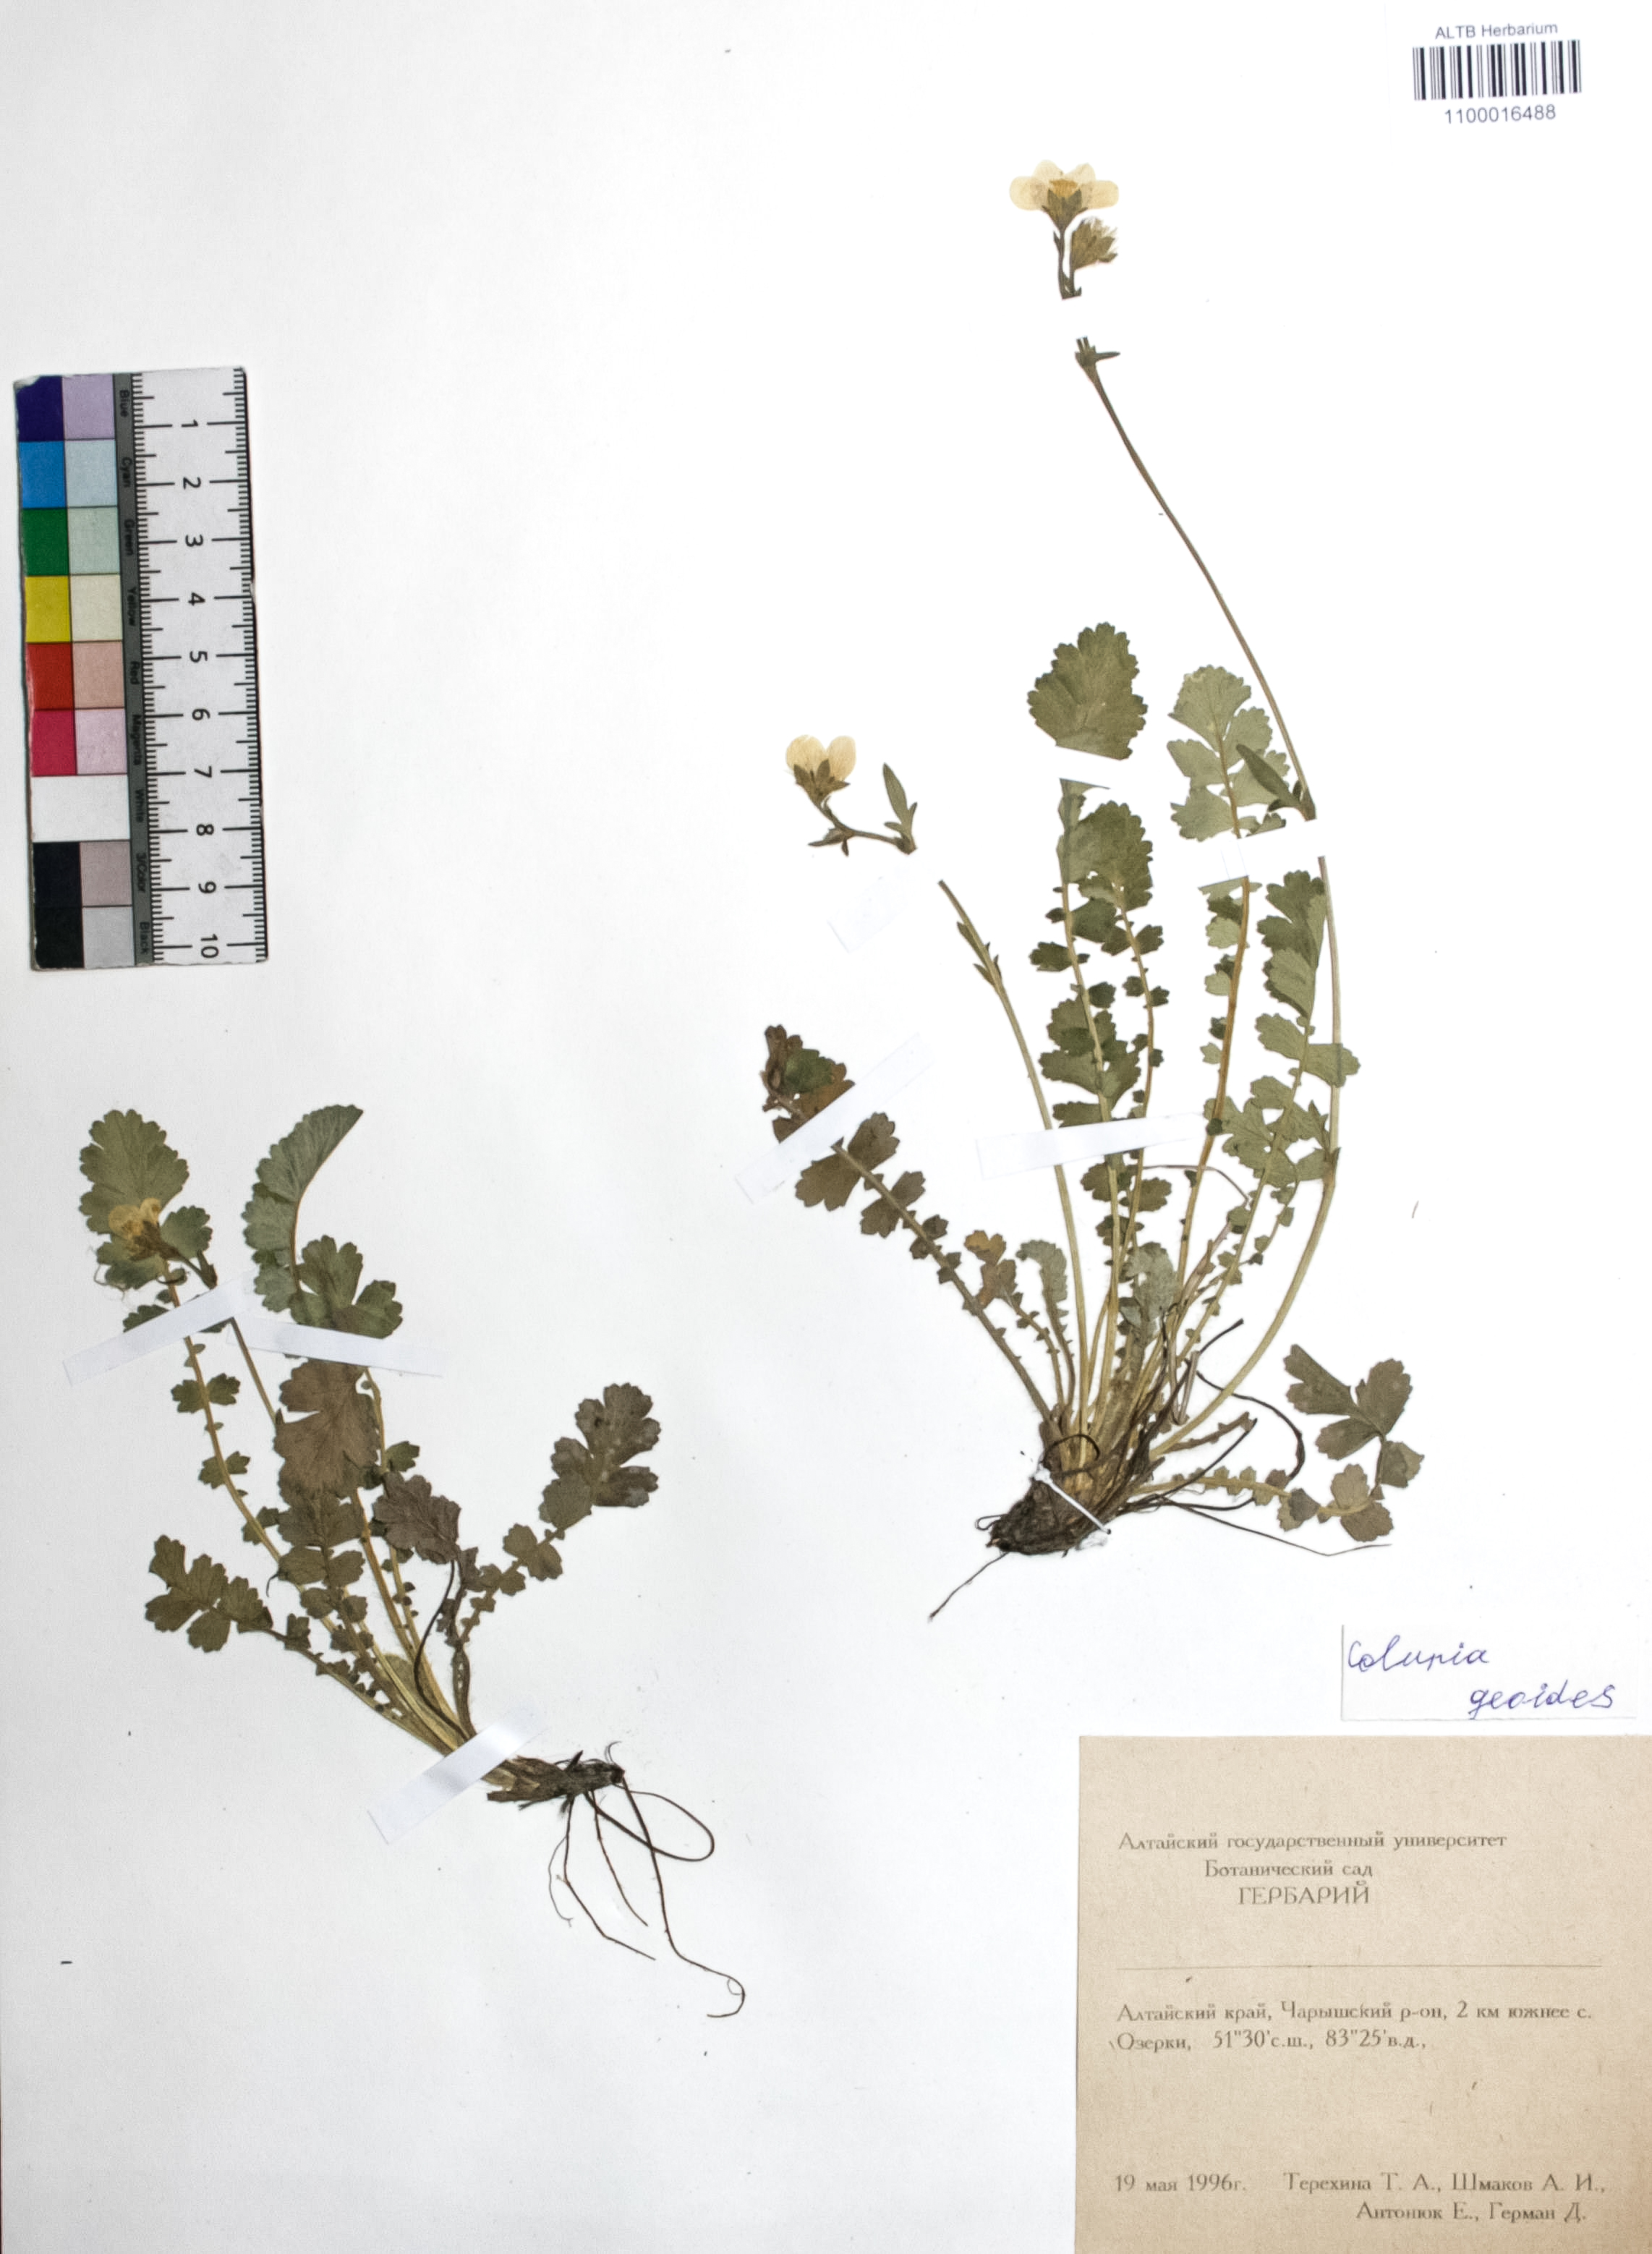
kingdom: Plantae
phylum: Tracheophyta
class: Magnoliopsida
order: Rosales
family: Rosaceae
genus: Geum
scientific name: Geum geoides
